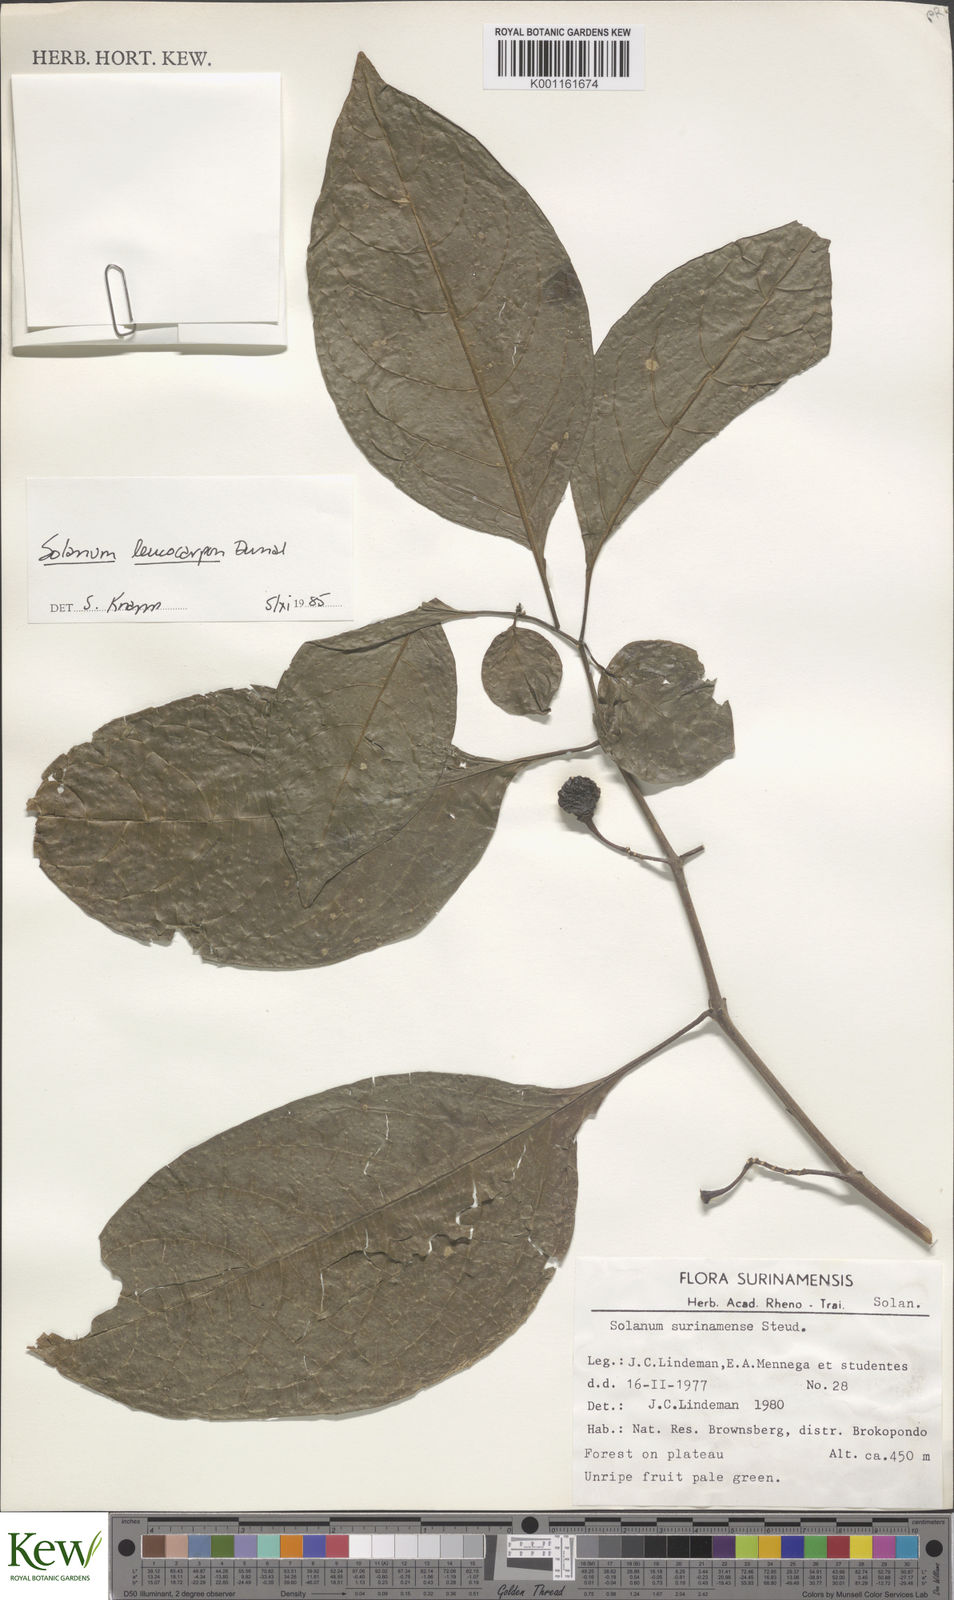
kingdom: Plantae
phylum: Tracheophyta
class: Magnoliopsida
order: Solanales
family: Solanaceae
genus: Solanum
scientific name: Solanum leucocarpon
